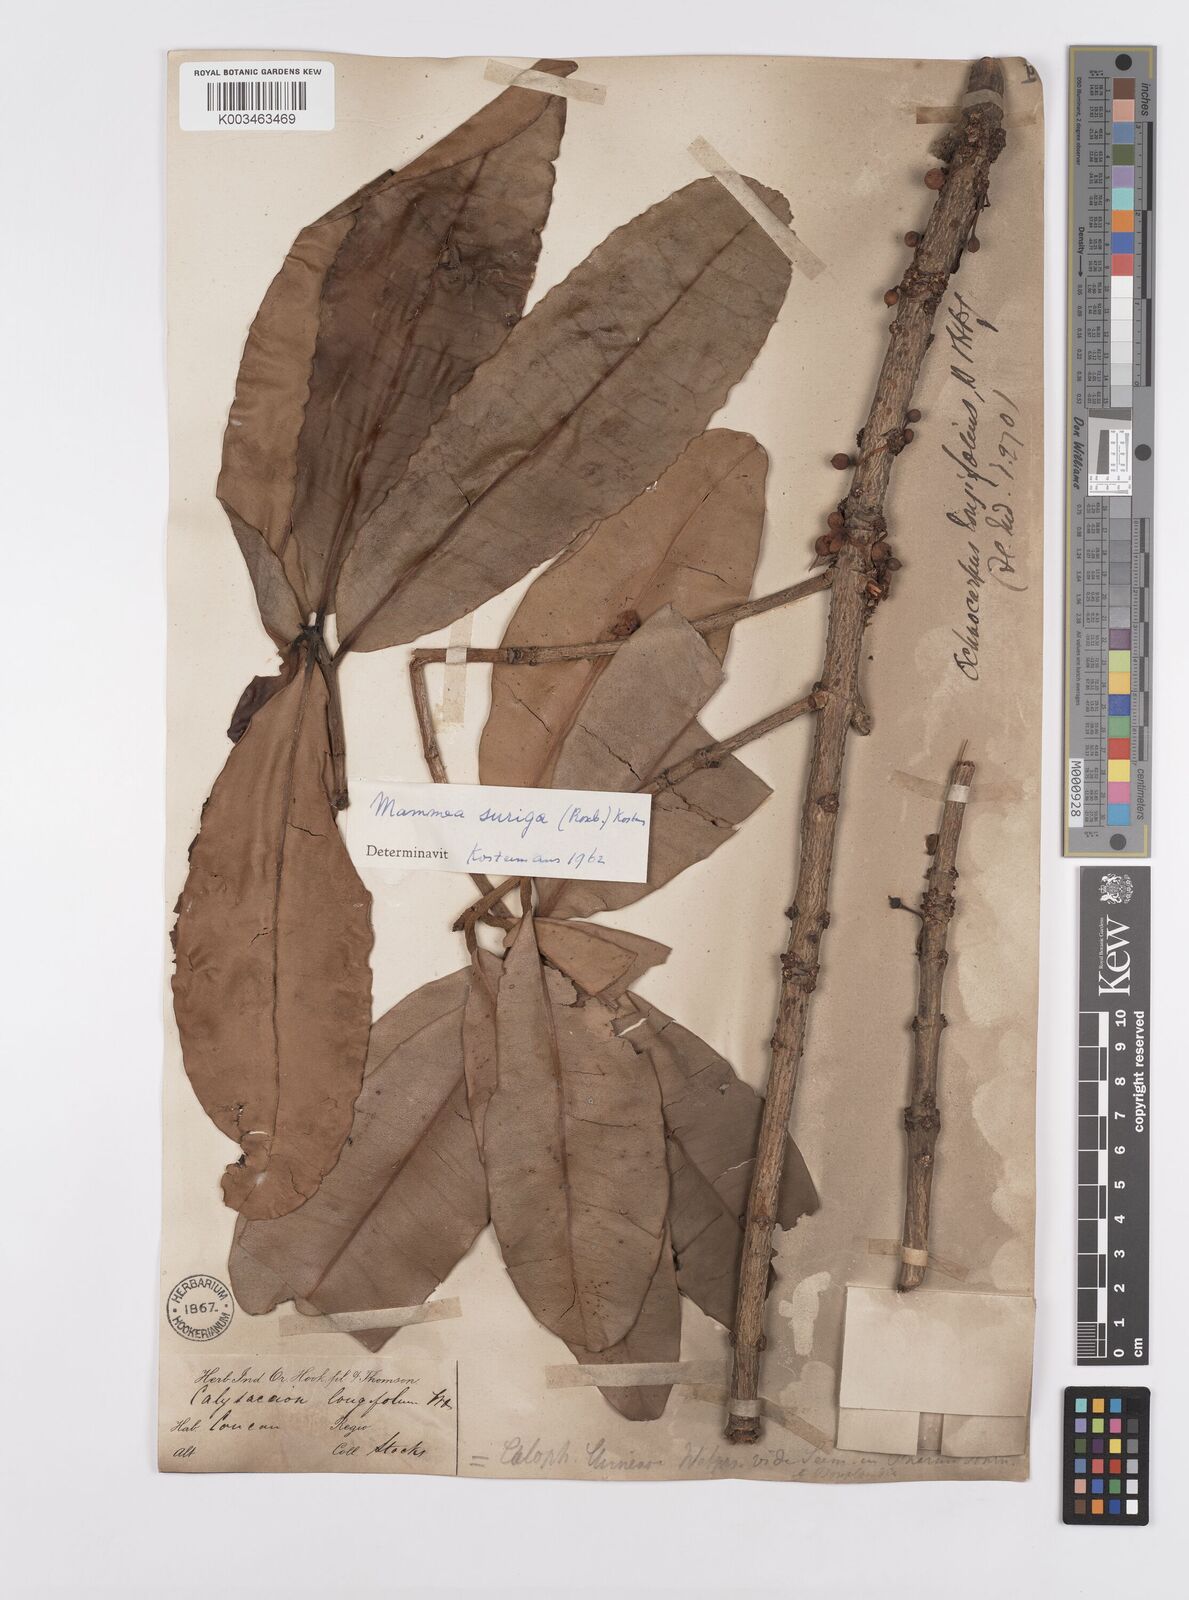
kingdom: Plantae
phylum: Tracheophyta
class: Magnoliopsida
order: Malpighiales
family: Calophyllaceae
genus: Mammea
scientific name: Mammea suriga
